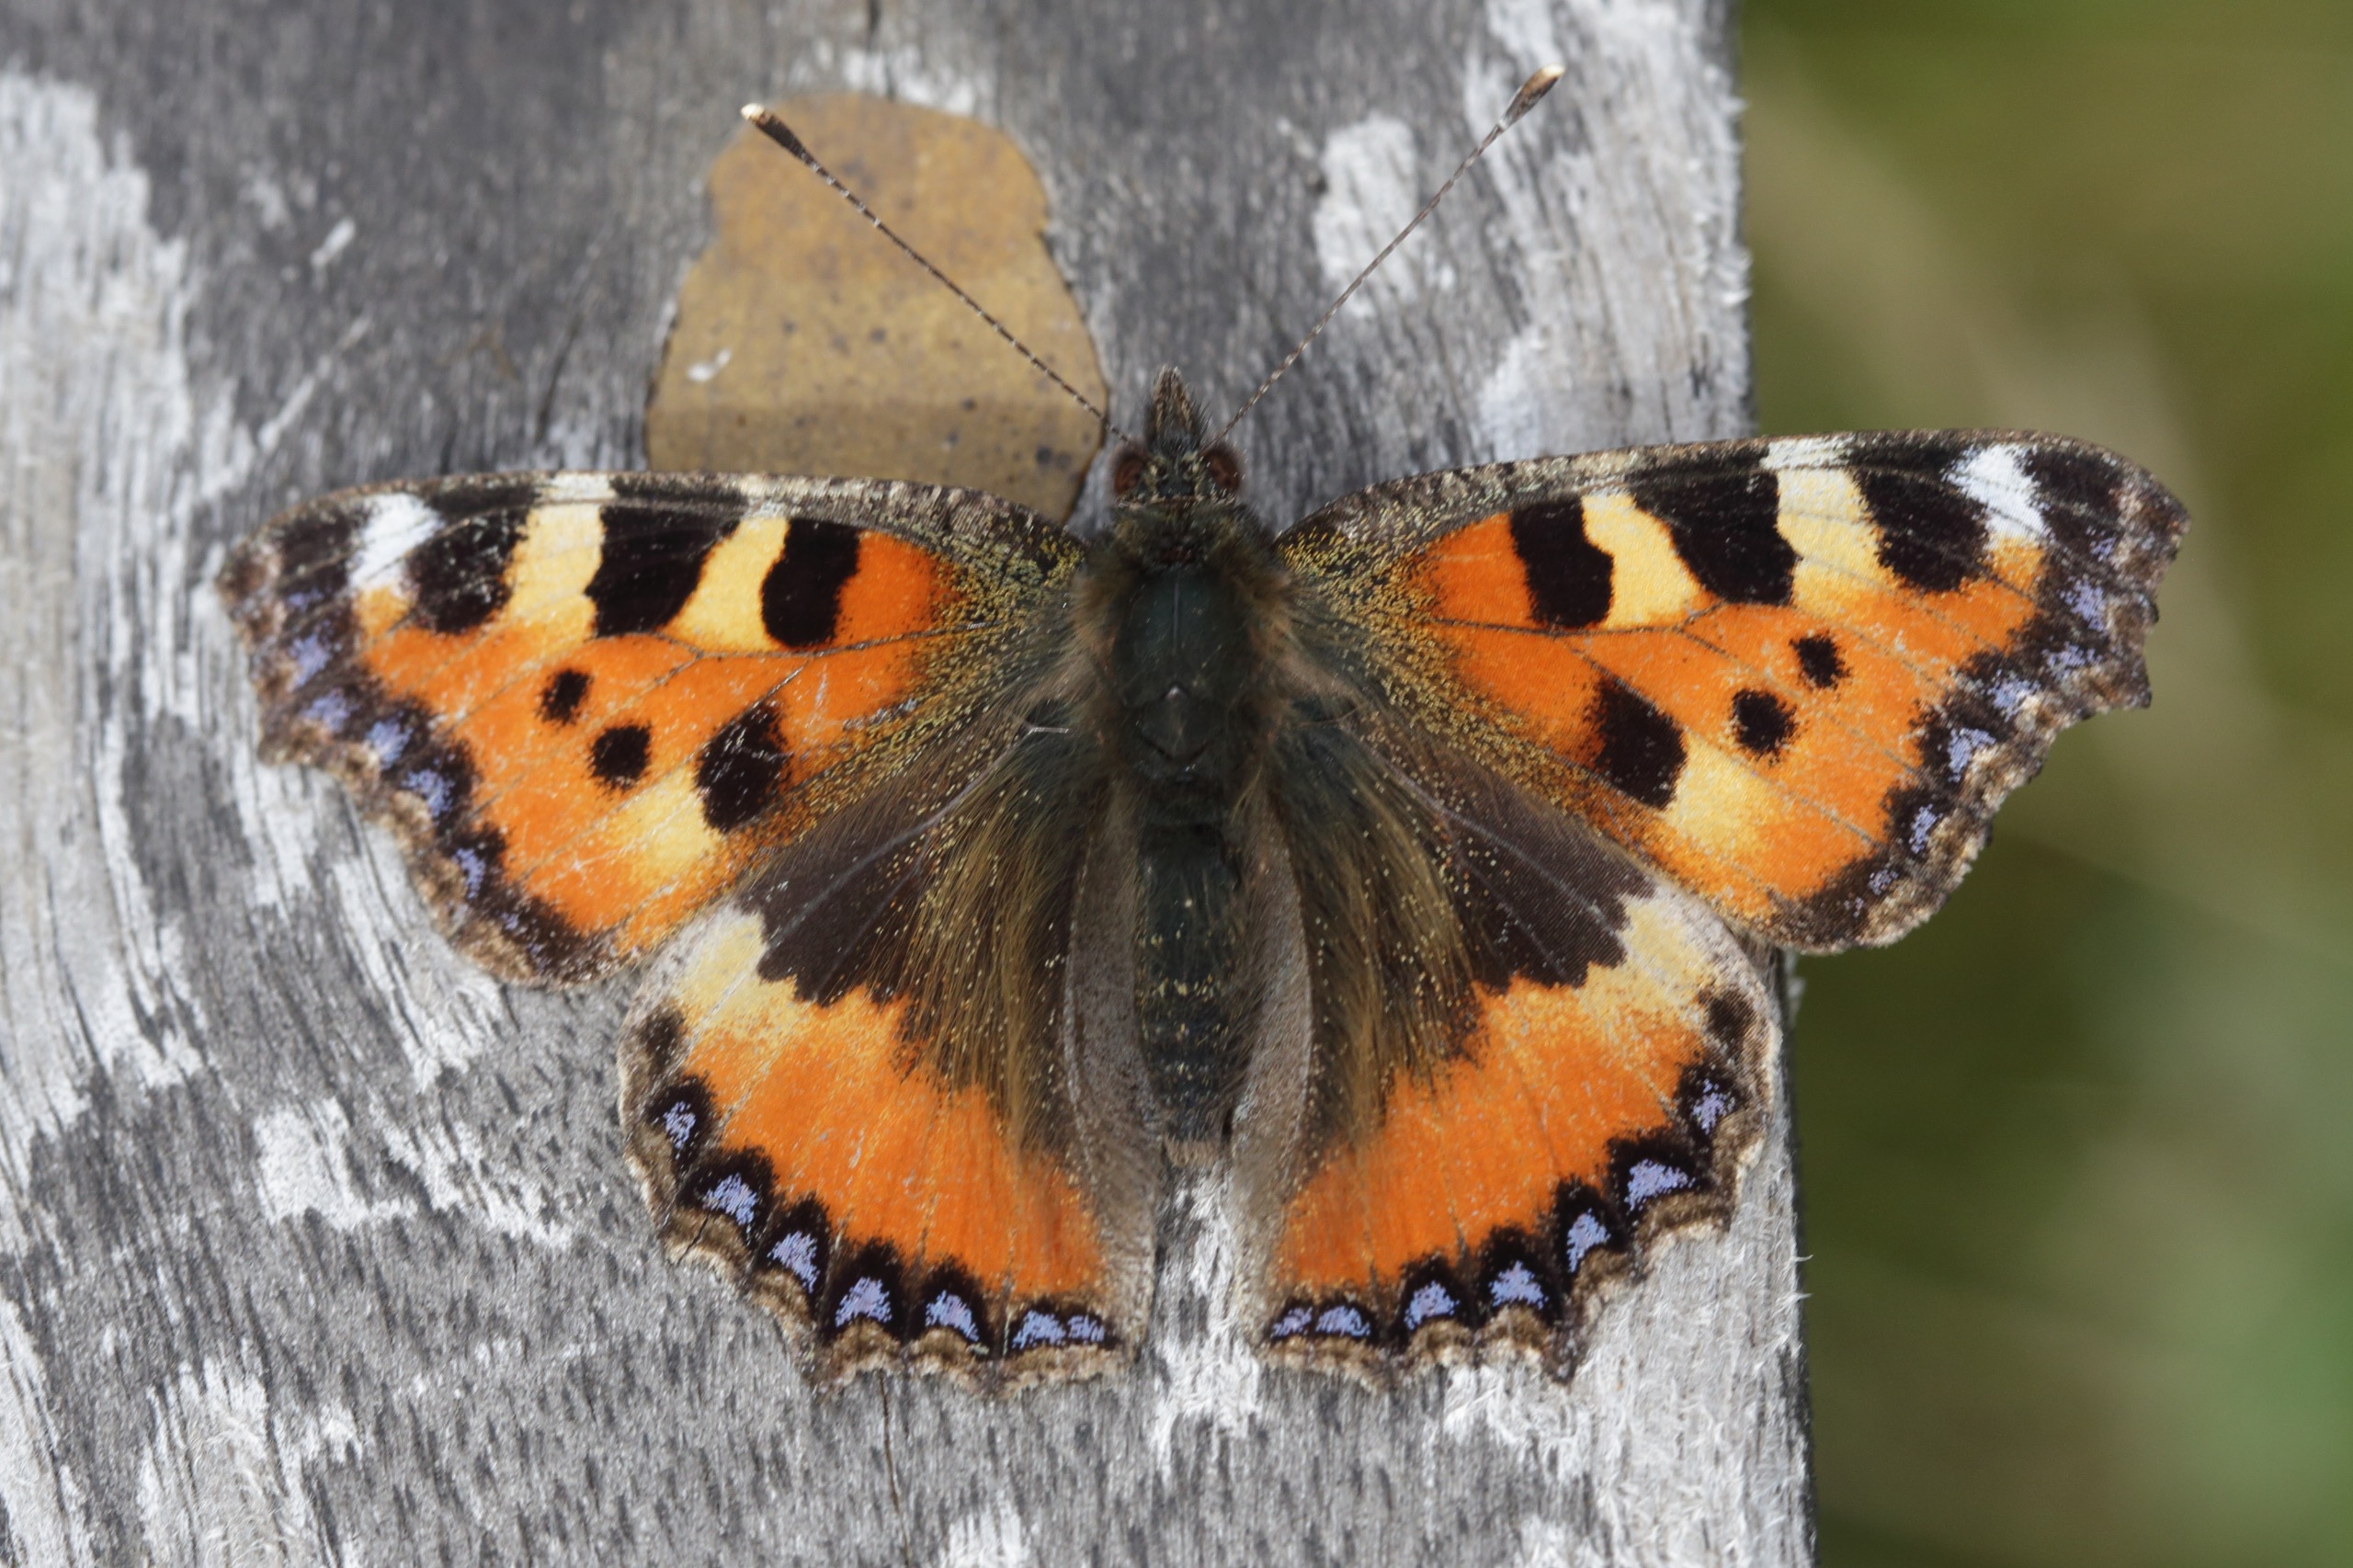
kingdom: Animalia
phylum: Arthropoda
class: Insecta
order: Lepidoptera
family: Nymphalidae
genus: Aglais
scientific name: Aglais urticae
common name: Nældens takvinge
